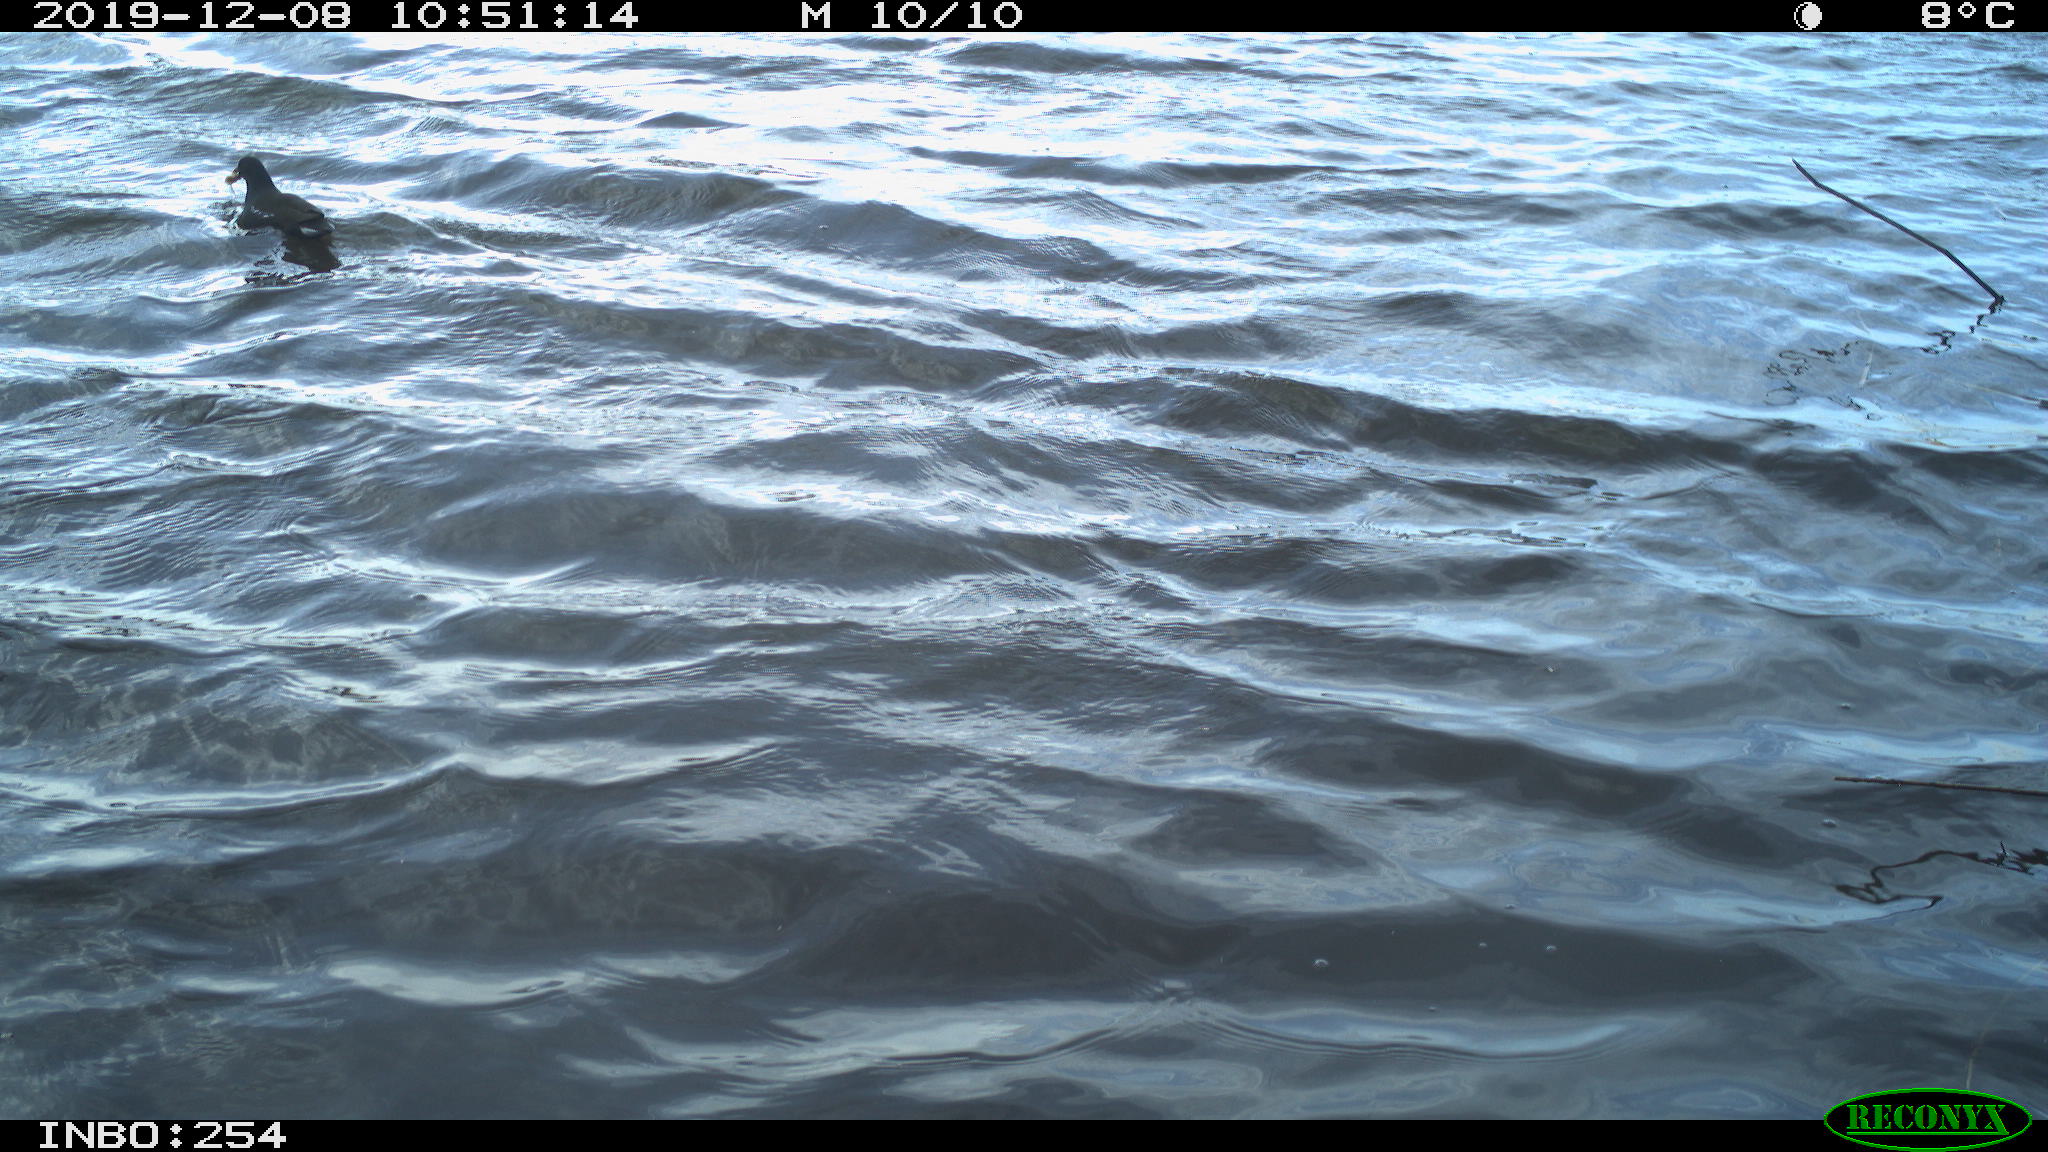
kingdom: Animalia
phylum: Chordata
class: Aves
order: Gruiformes
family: Rallidae
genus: Gallinula
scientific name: Gallinula chloropus
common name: Common moorhen
